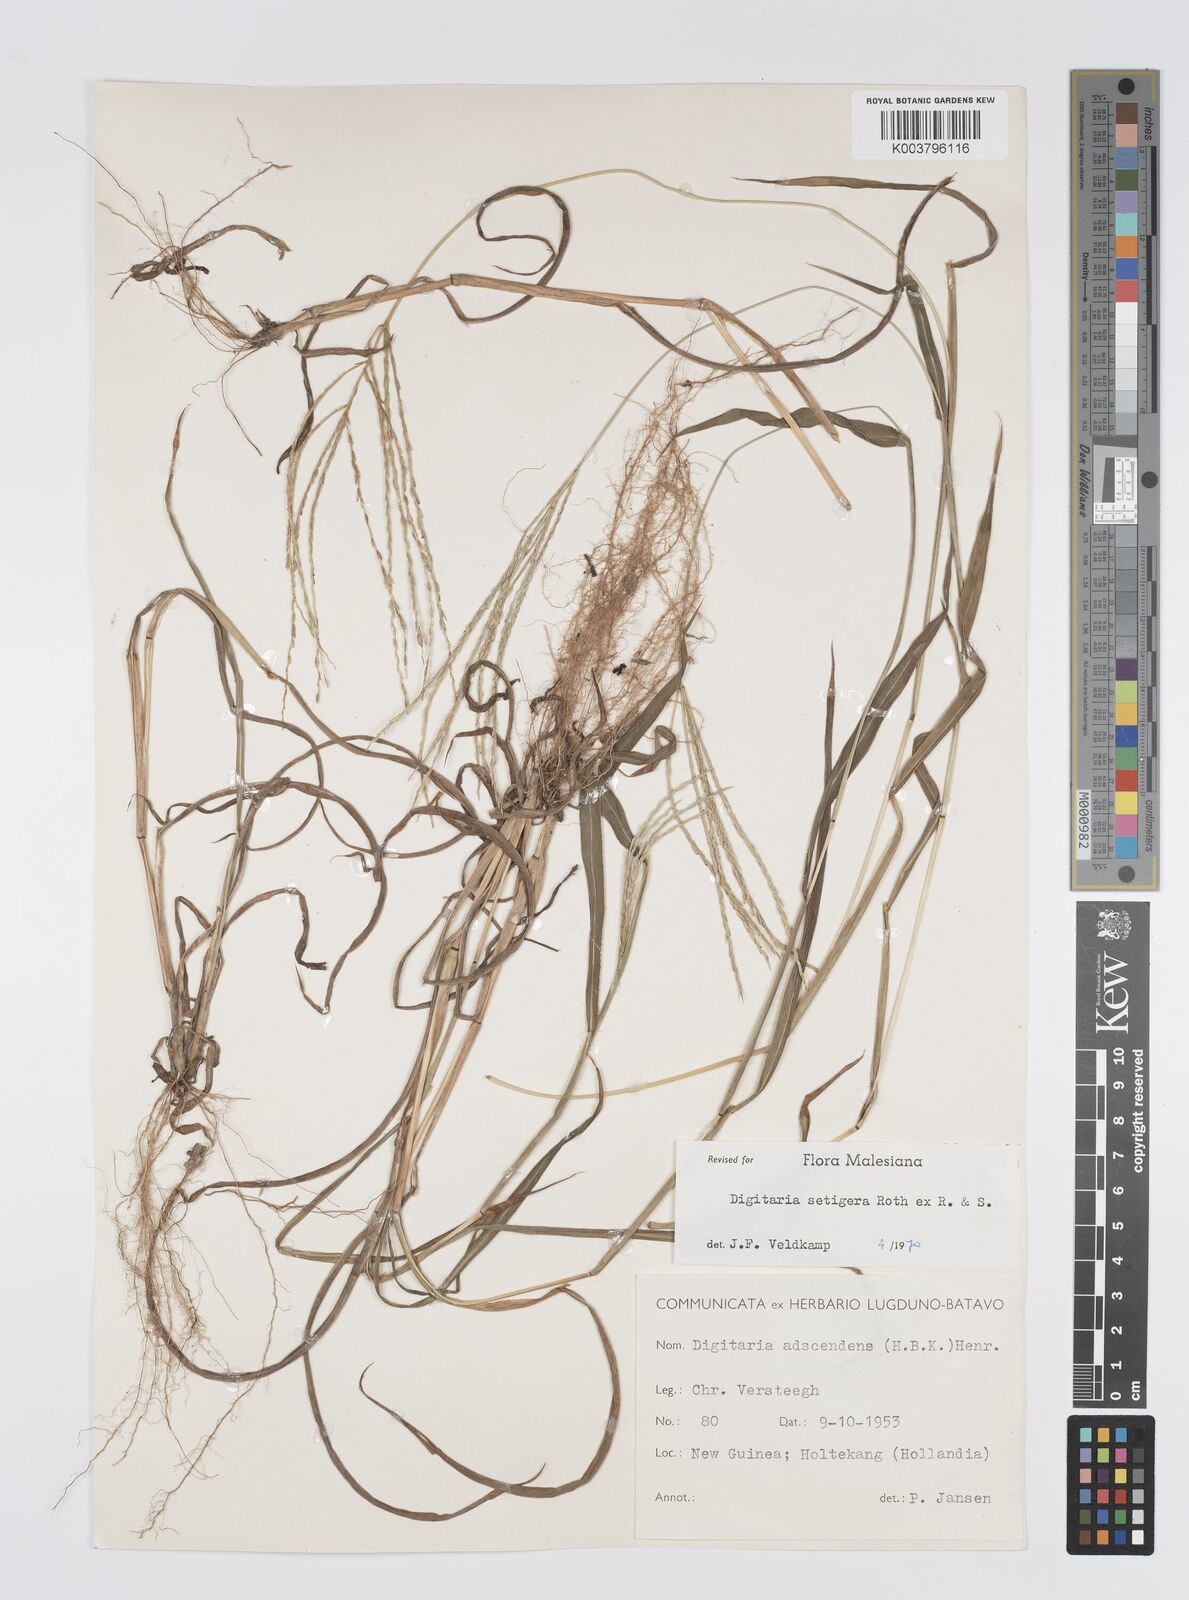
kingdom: Plantae
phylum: Tracheophyta
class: Liliopsida
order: Poales
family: Poaceae
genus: Digitaria
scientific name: Digitaria setigera
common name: East indian crabgrass
